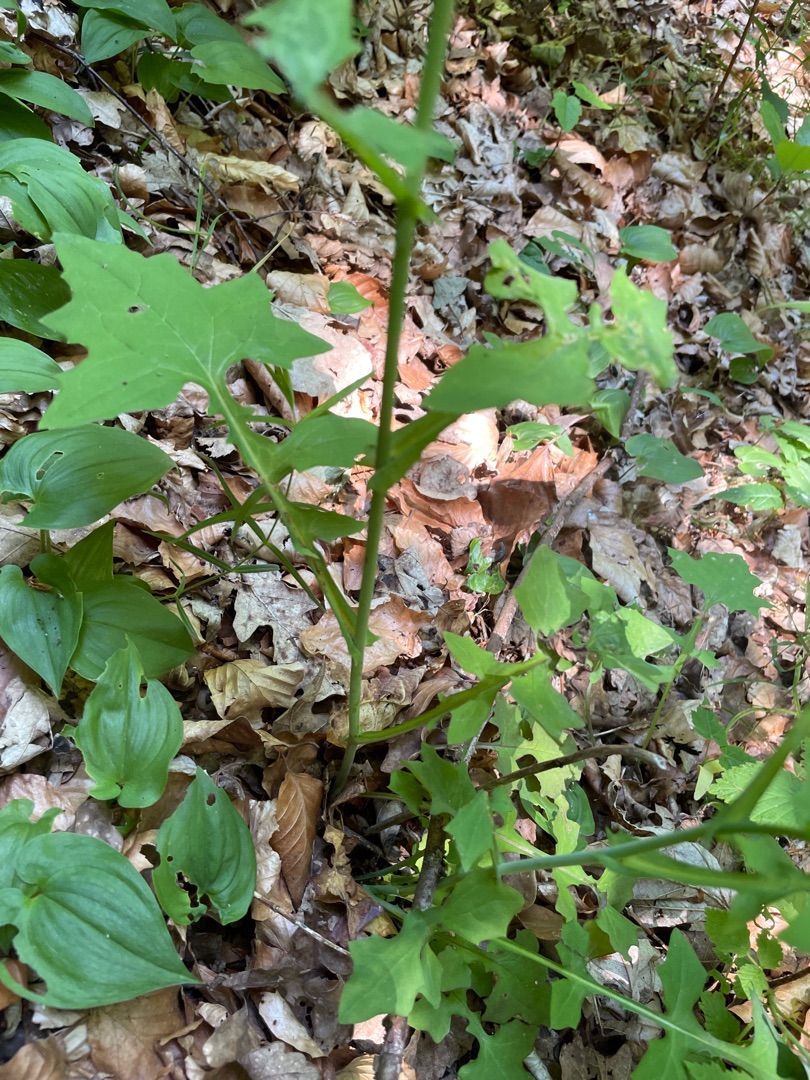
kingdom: Plantae
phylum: Tracheophyta
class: Magnoliopsida
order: Asterales
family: Asteraceae
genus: Mycelis
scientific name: Mycelis muralis
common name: Skov-salat
